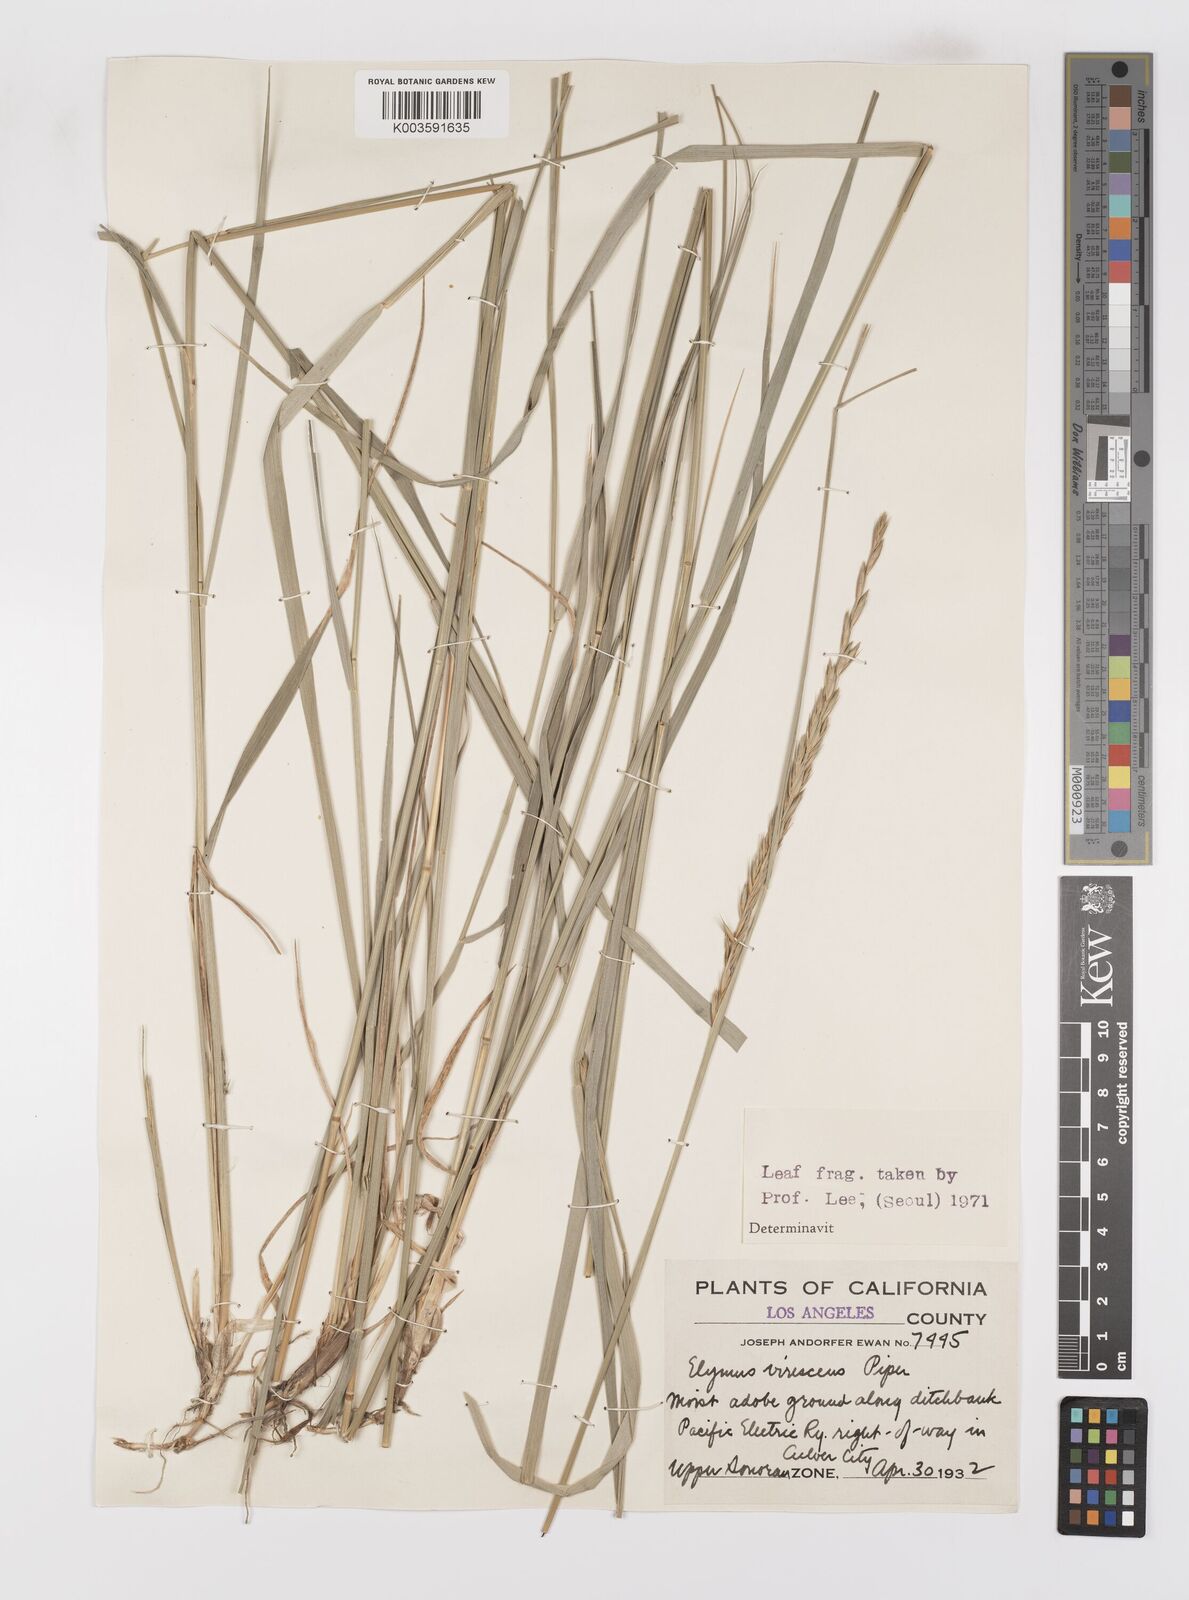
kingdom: Plantae
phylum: Tracheophyta
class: Liliopsida
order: Poales
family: Poaceae
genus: Leymus
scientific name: Leymus
